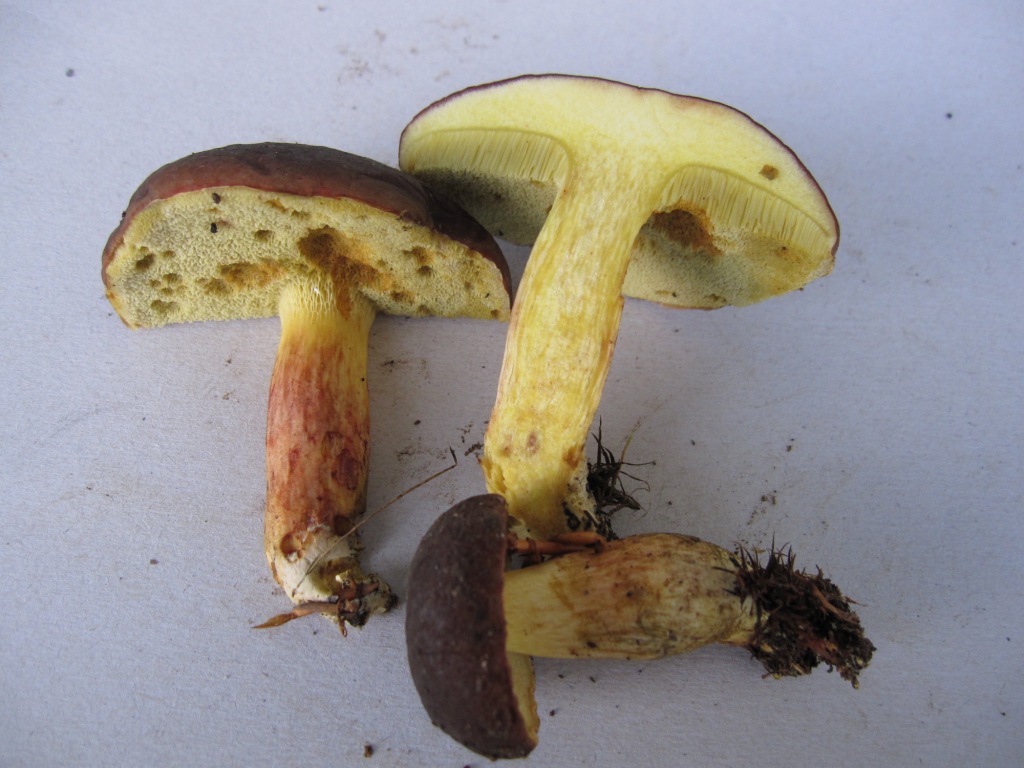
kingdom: Fungi
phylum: Basidiomycota
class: Agaricomycetes
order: Boletales
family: Boletaceae
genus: Xerocomellus
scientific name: Xerocomellus pruinatus
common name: dugget rørhat
